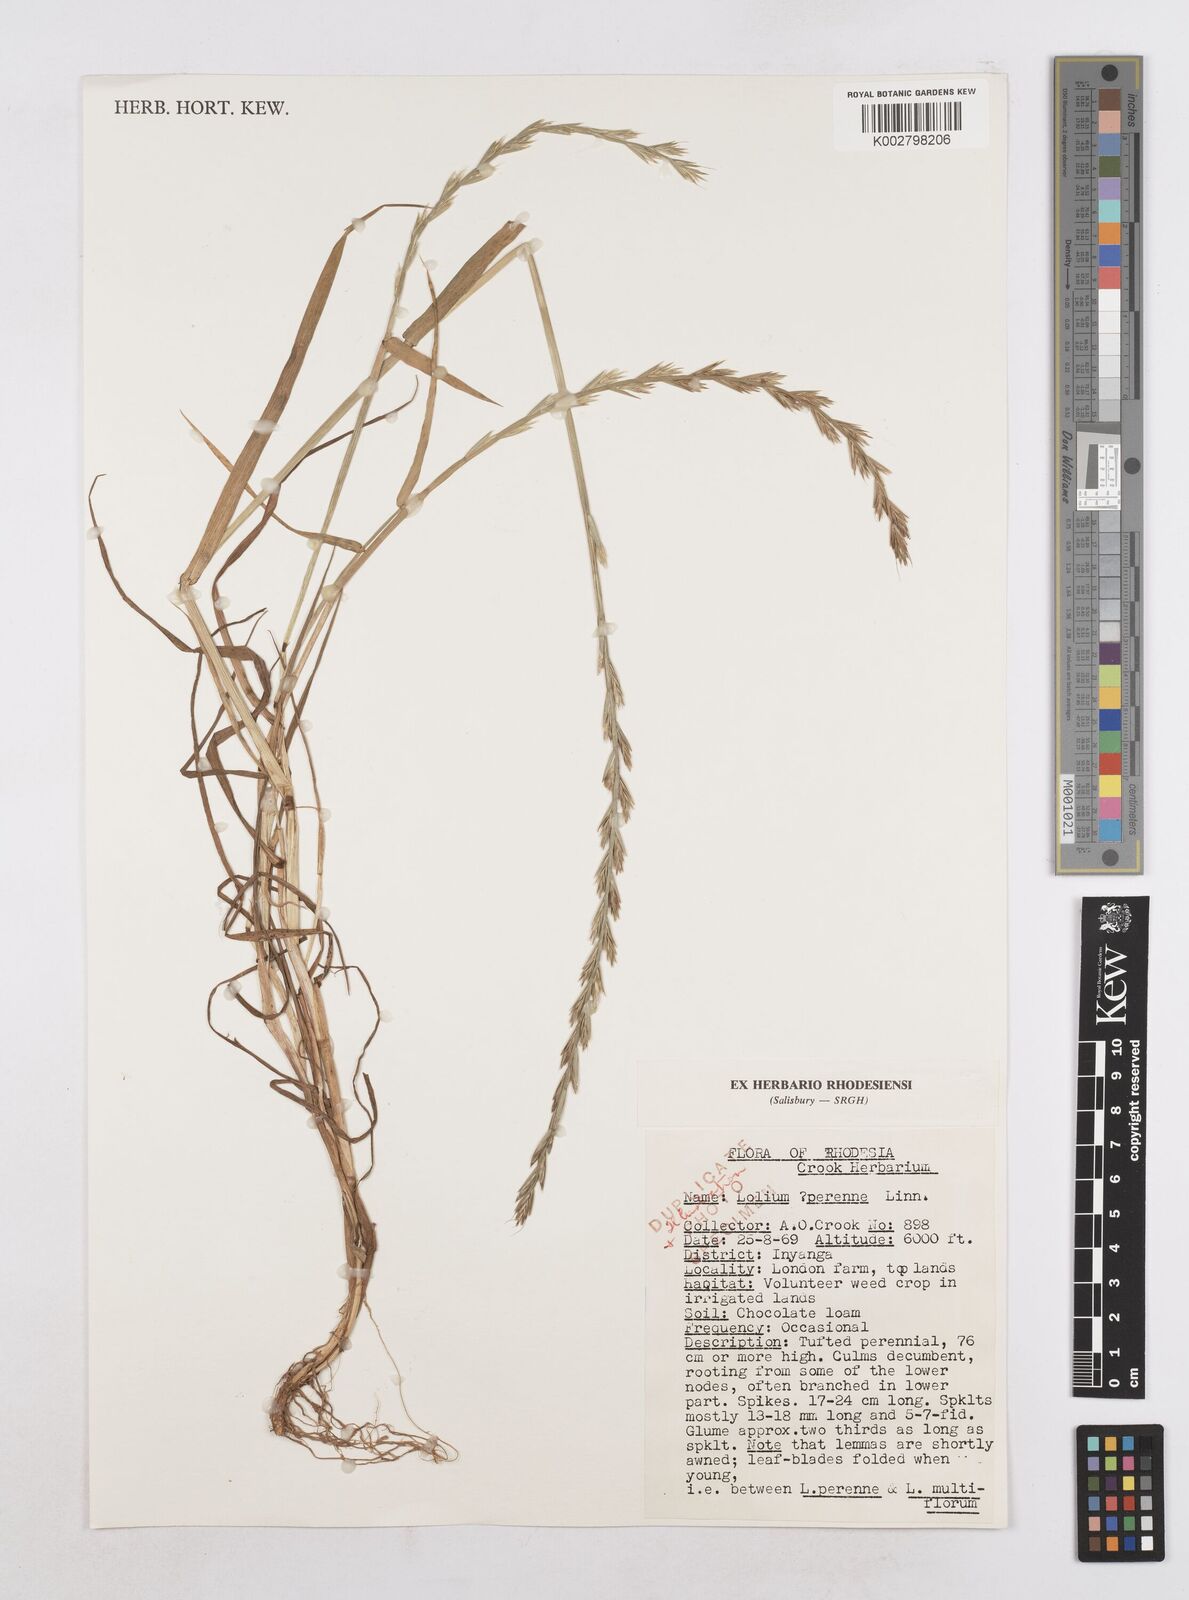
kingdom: Plantae
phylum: Tracheophyta
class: Liliopsida
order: Poales
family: Poaceae
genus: Lolium
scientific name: Lolium perenne
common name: Perennial ryegrass
